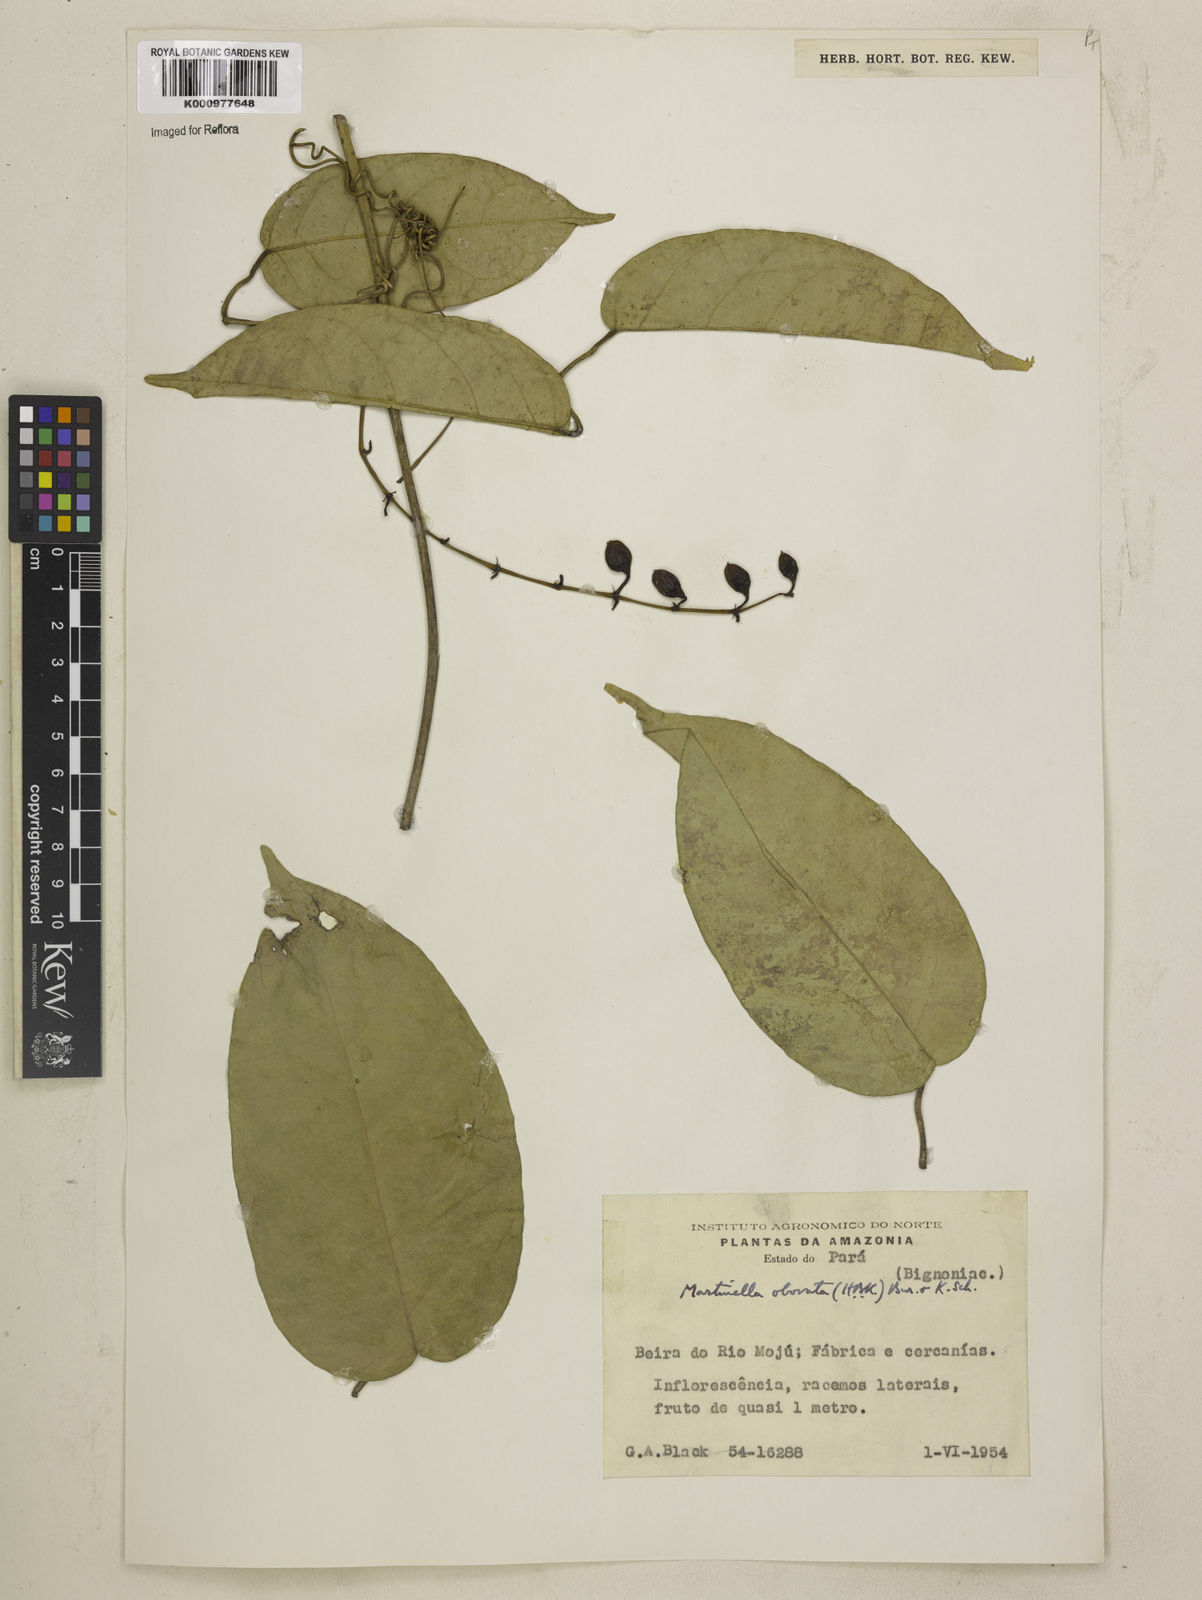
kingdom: Animalia
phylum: Arthropoda
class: Insecta
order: Coleoptera
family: Chrysomelidae
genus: Martinella
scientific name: Martinella obovata
